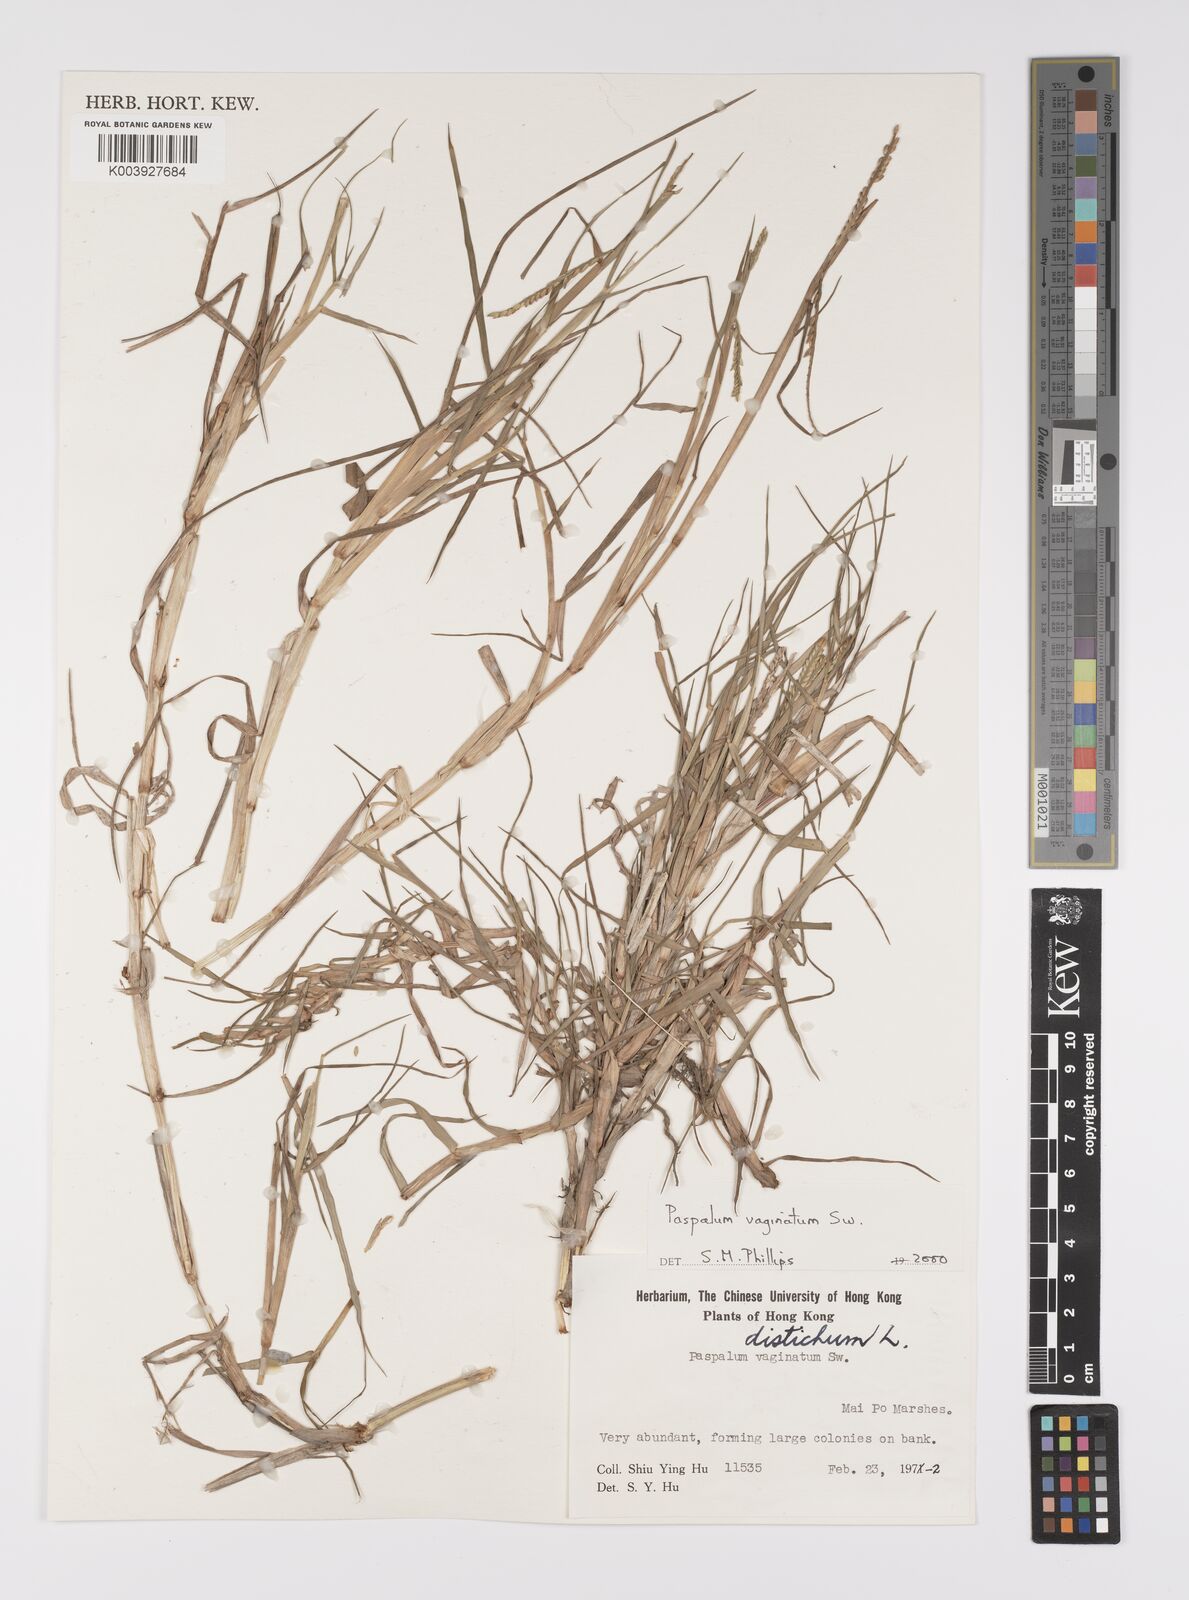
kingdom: Plantae
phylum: Tracheophyta
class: Liliopsida
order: Poales
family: Poaceae
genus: Paspalum
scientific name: Paspalum vaginatum
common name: Seashore paspalum
